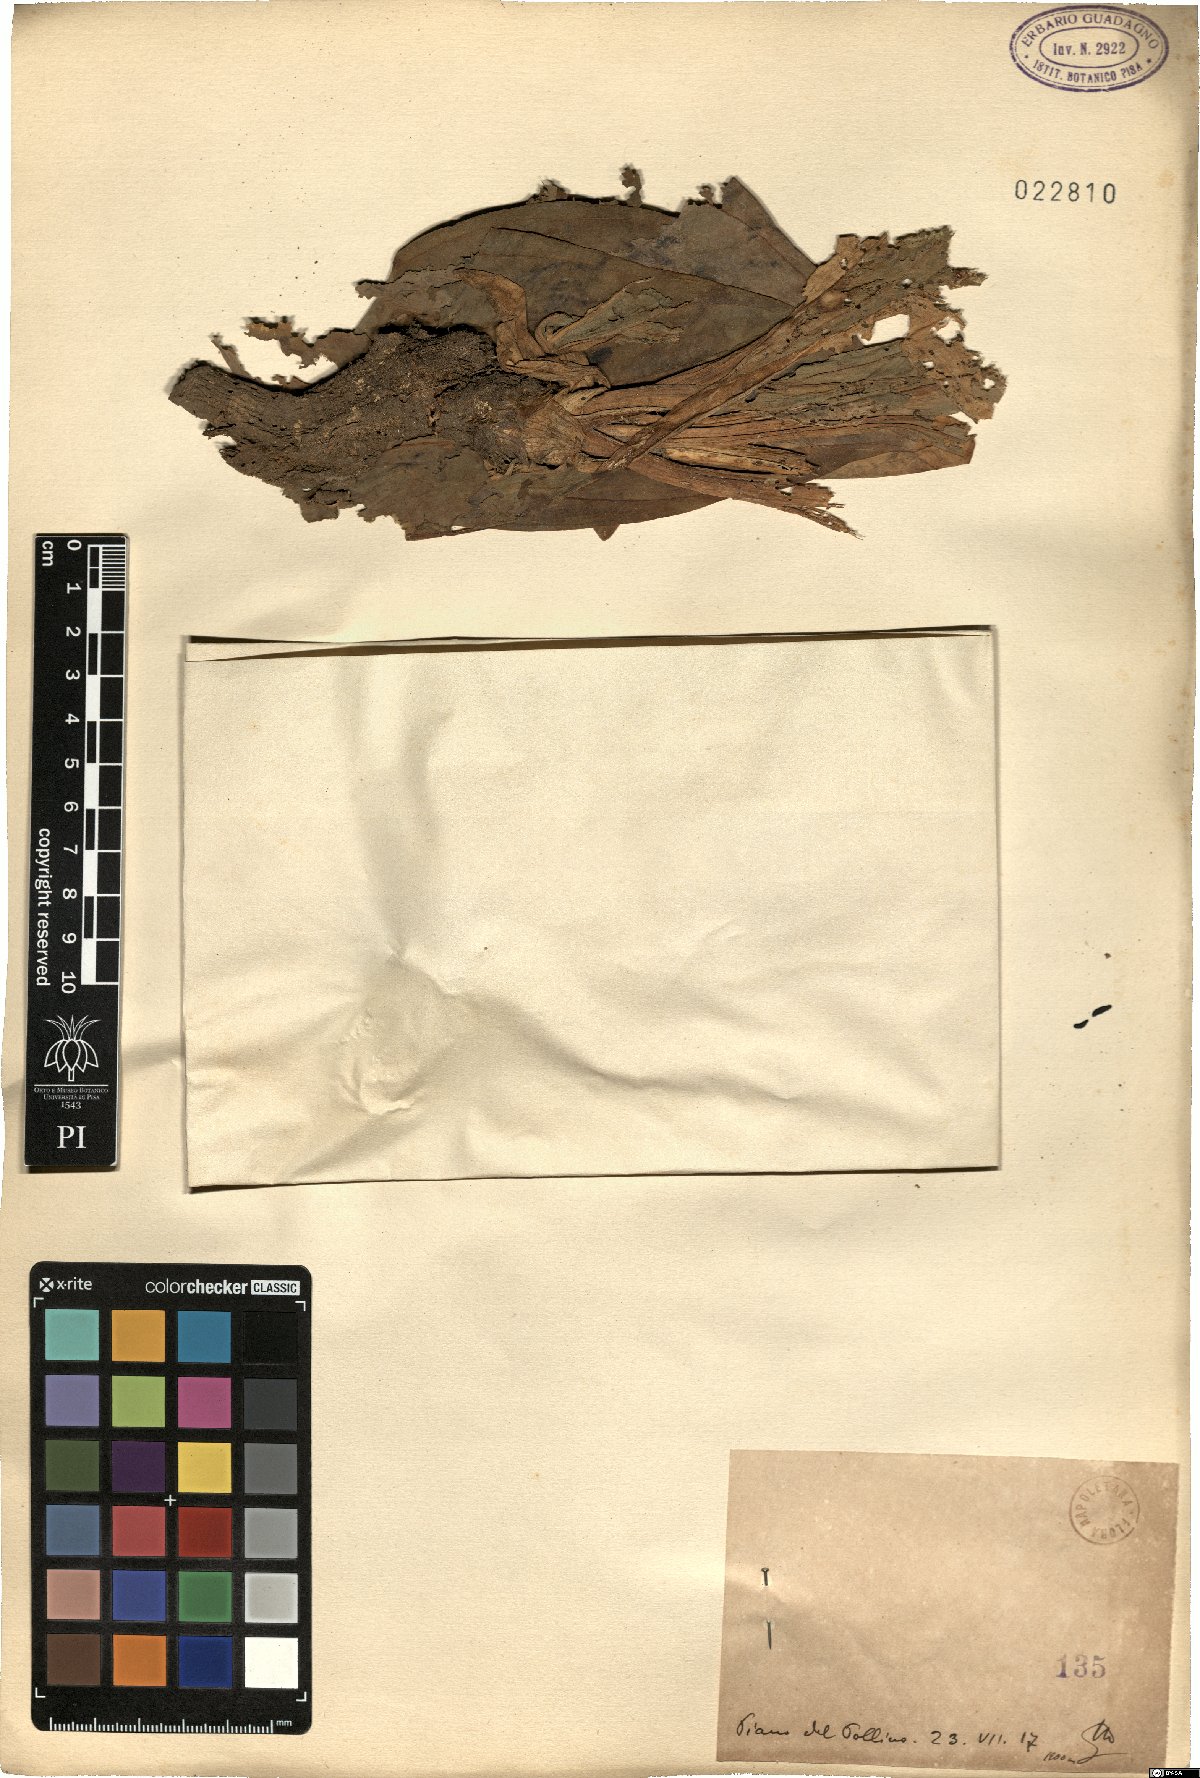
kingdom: Plantae
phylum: Tracheophyta
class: Magnoliopsida
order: Gentianales
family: Gentianaceae
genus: Gentiana
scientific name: Gentiana
